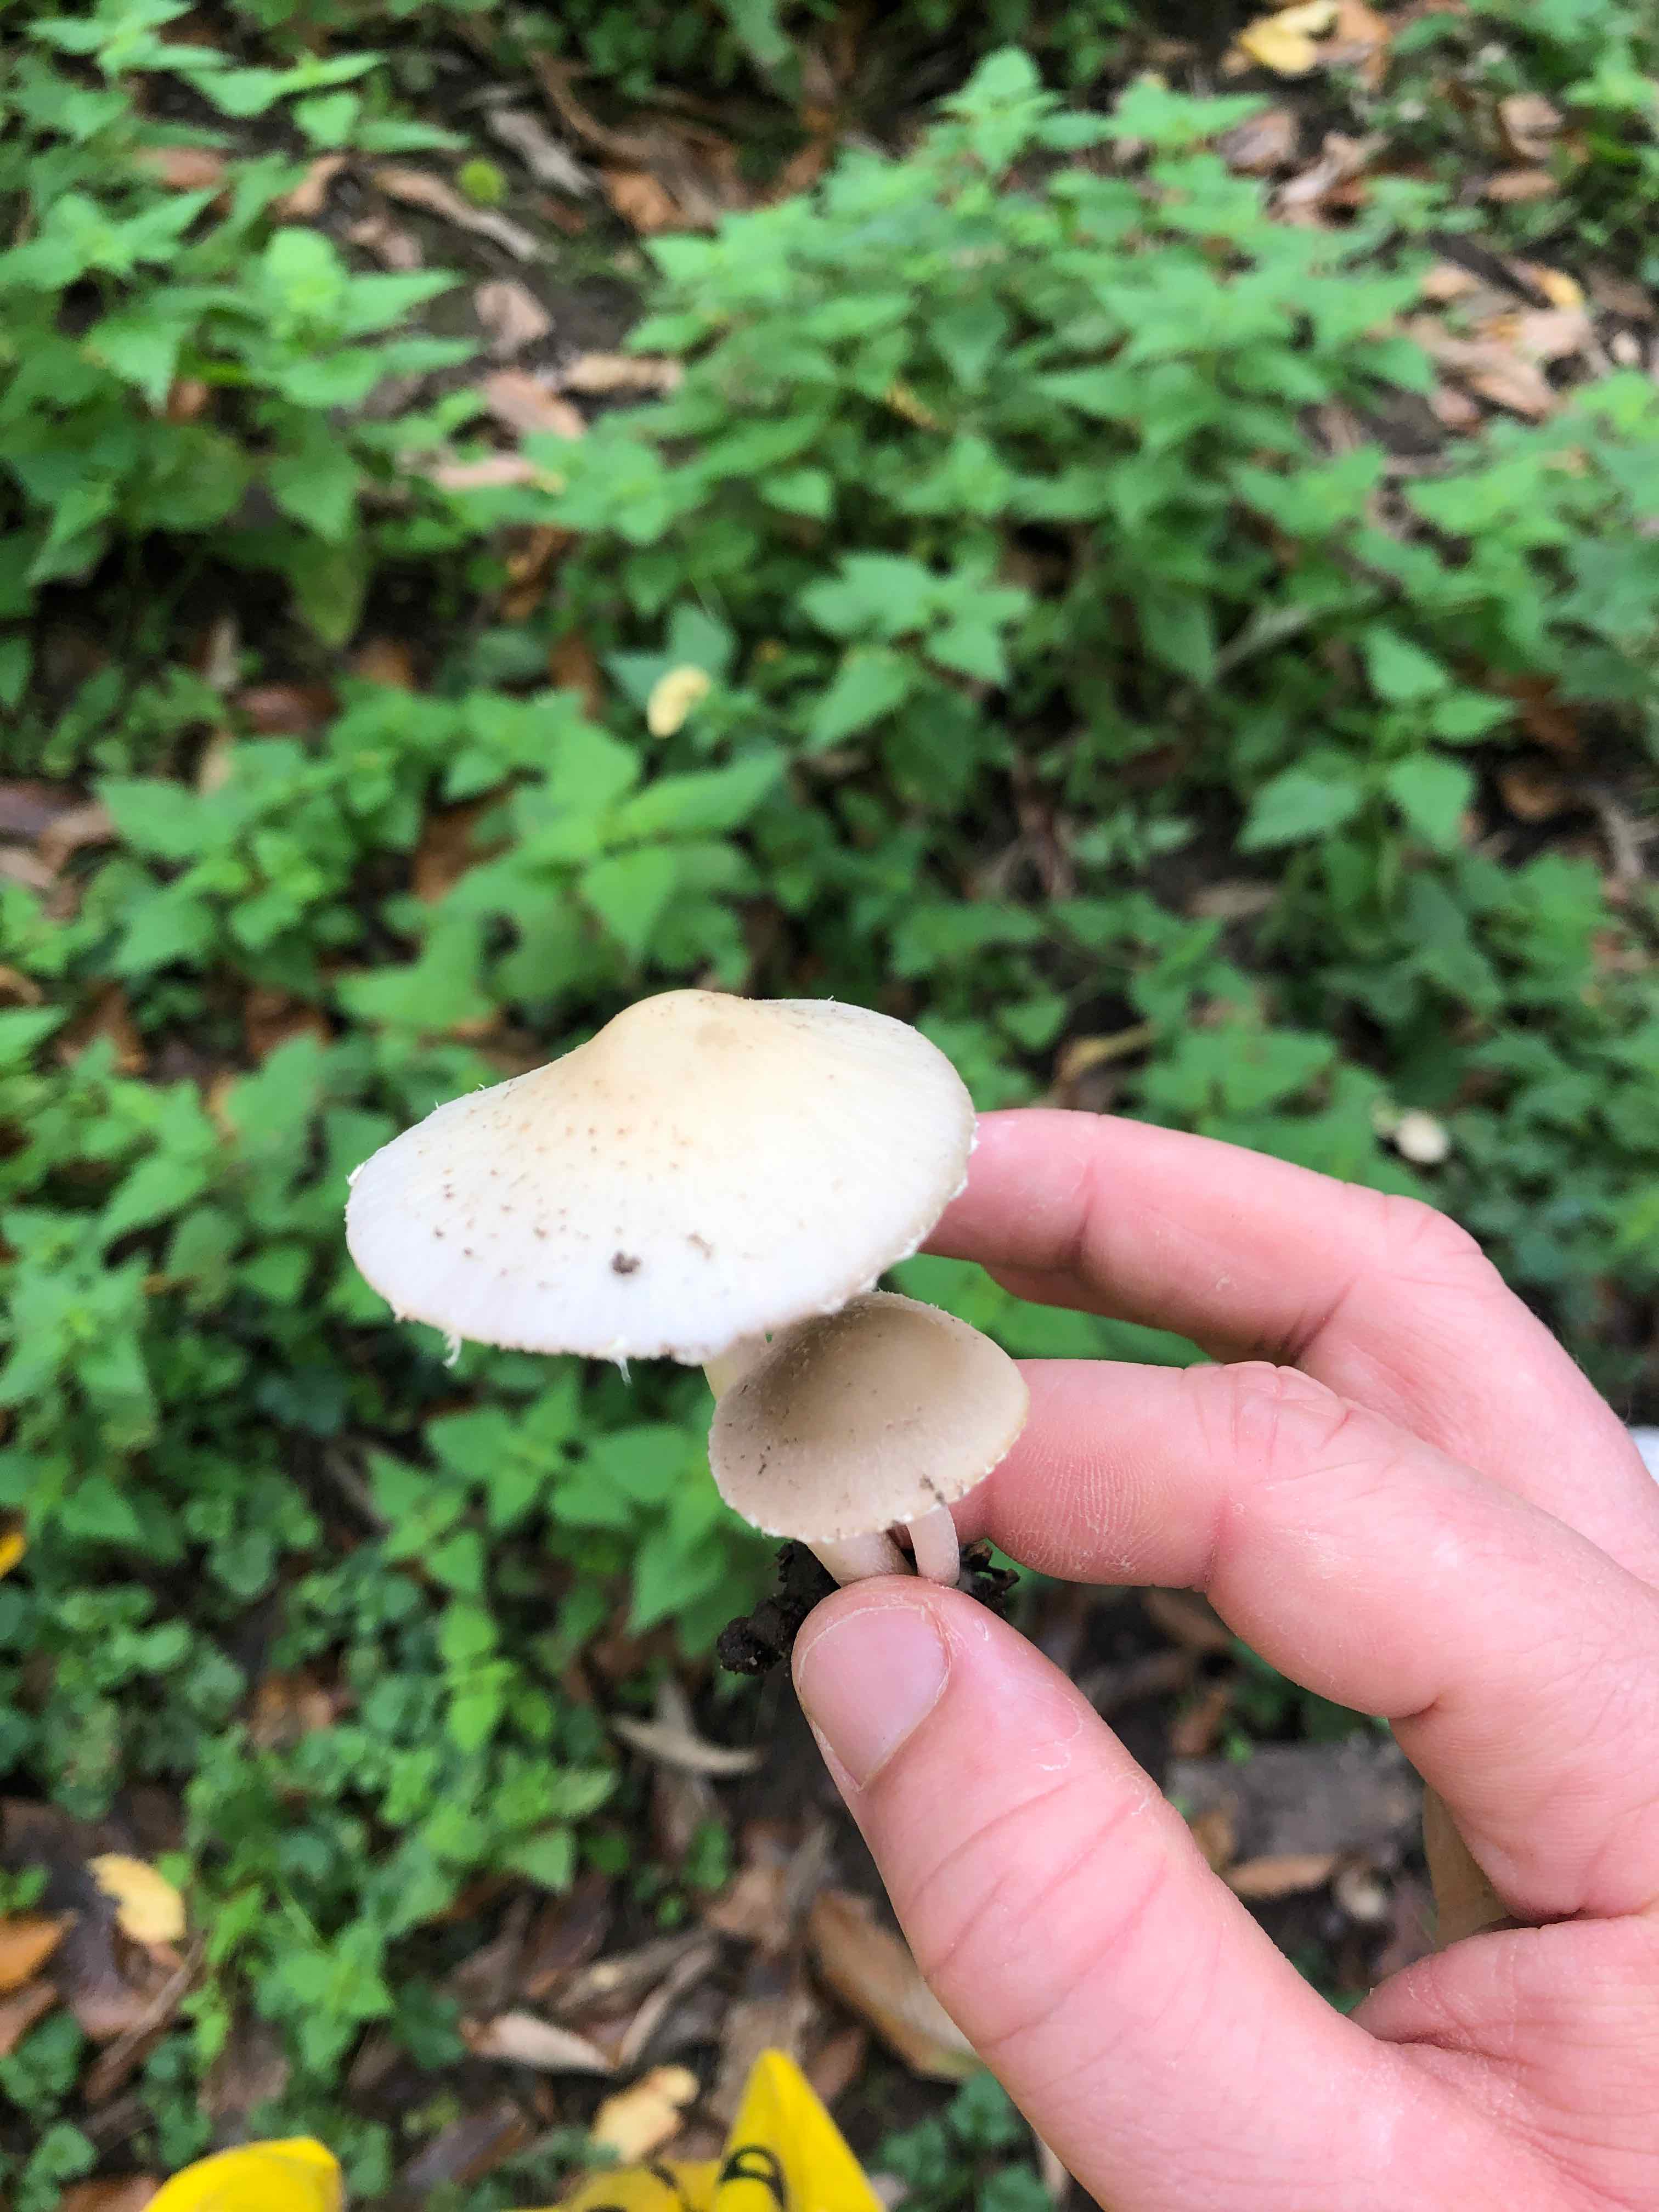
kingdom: Fungi
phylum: Basidiomycota
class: Agaricomycetes
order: Agaricales
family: Psathyrellaceae
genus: Candolleomyces
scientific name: Candolleomyces candolleanus
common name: Candolles mørkhat
